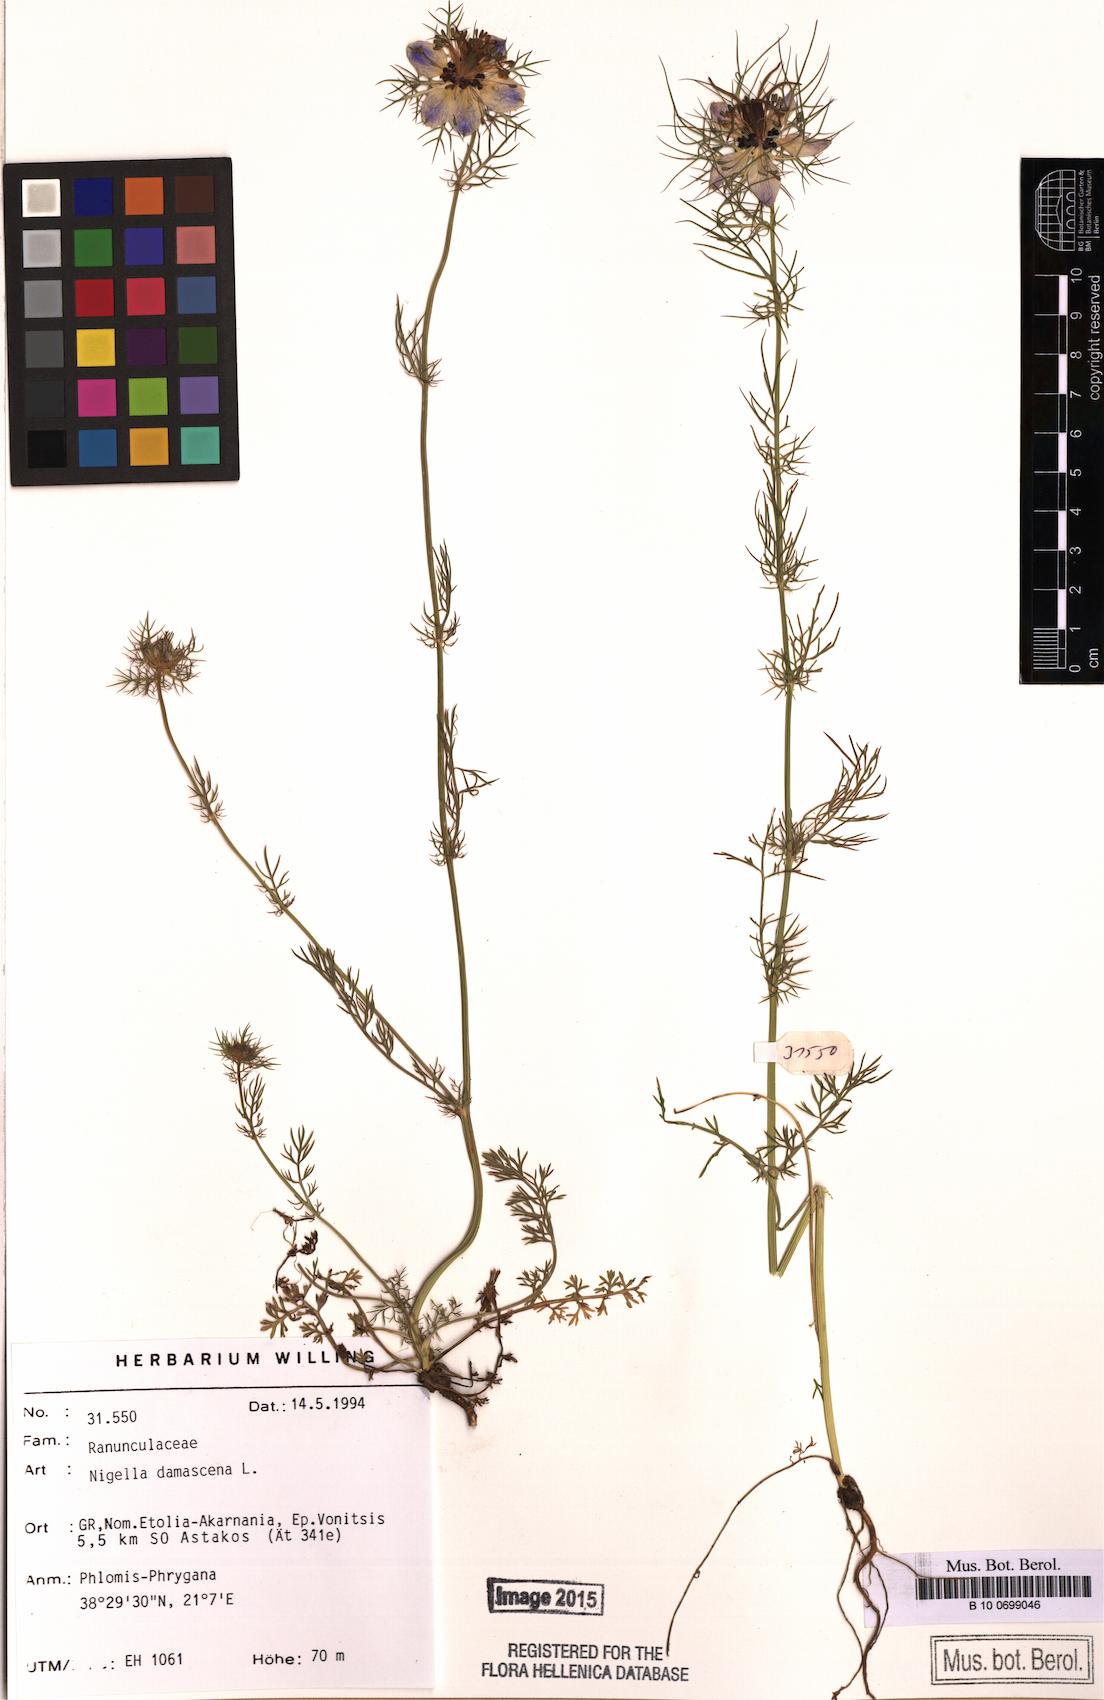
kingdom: Plantae
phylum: Tracheophyta
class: Magnoliopsida
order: Ranunculales
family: Ranunculaceae
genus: Nigella
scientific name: Nigella damascena
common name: Love-in-a-mist
